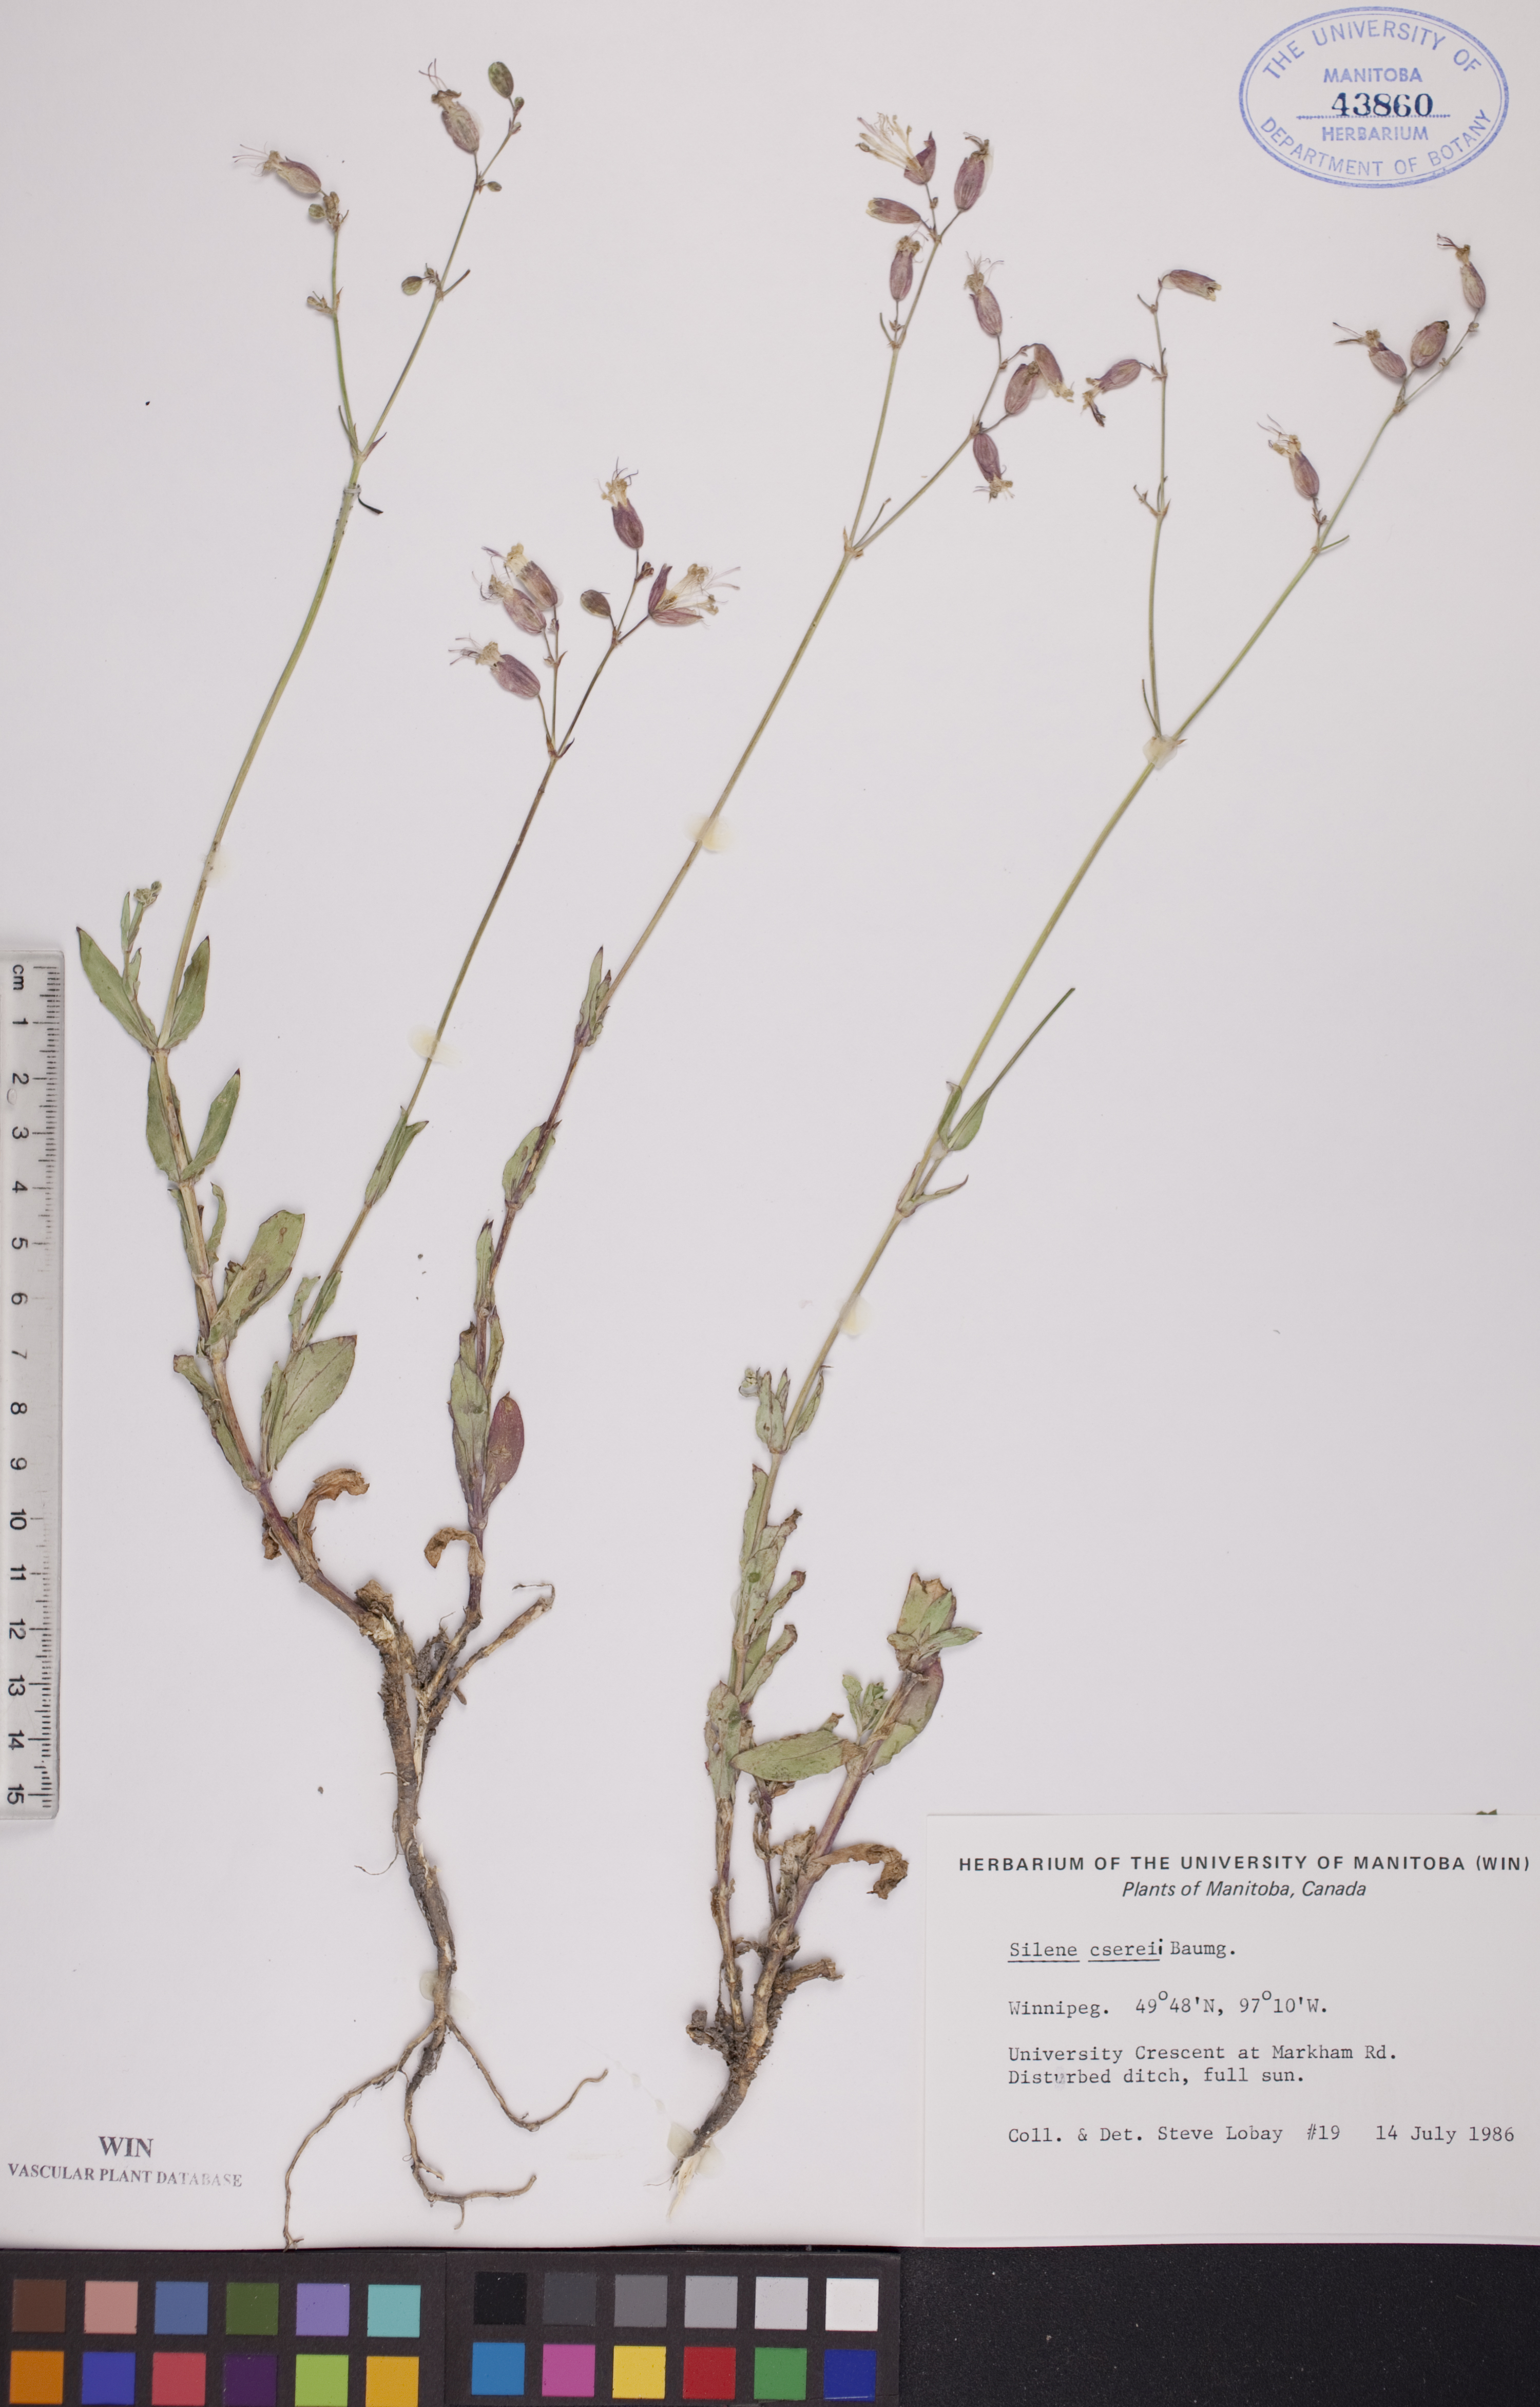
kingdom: Plantae
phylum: Tracheophyta
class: Magnoliopsida
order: Caryophyllales
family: Caryophyllaceae
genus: Silene
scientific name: Silene csereii
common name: Balkan catchfly
